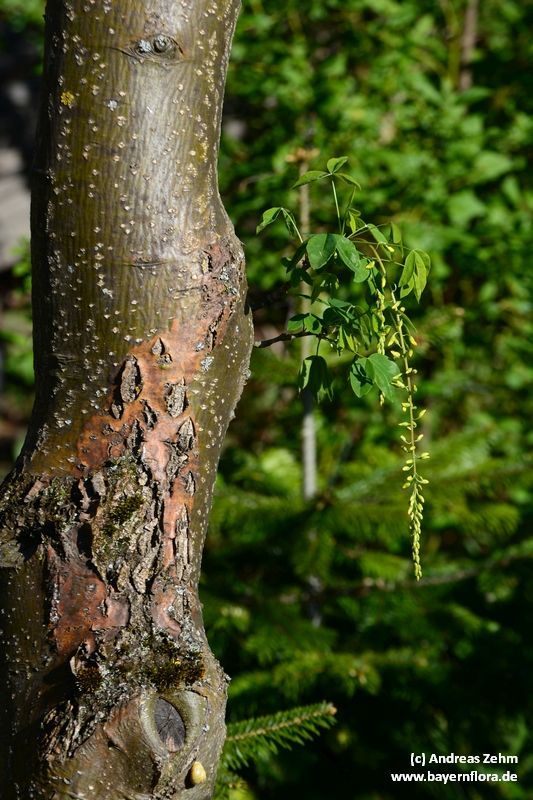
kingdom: Plantae
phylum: Tracheophyta
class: Magnoliopsida
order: Fabales
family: Fabaceae
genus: Laburnum
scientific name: Laburnum anagyroides
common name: Laburnum
